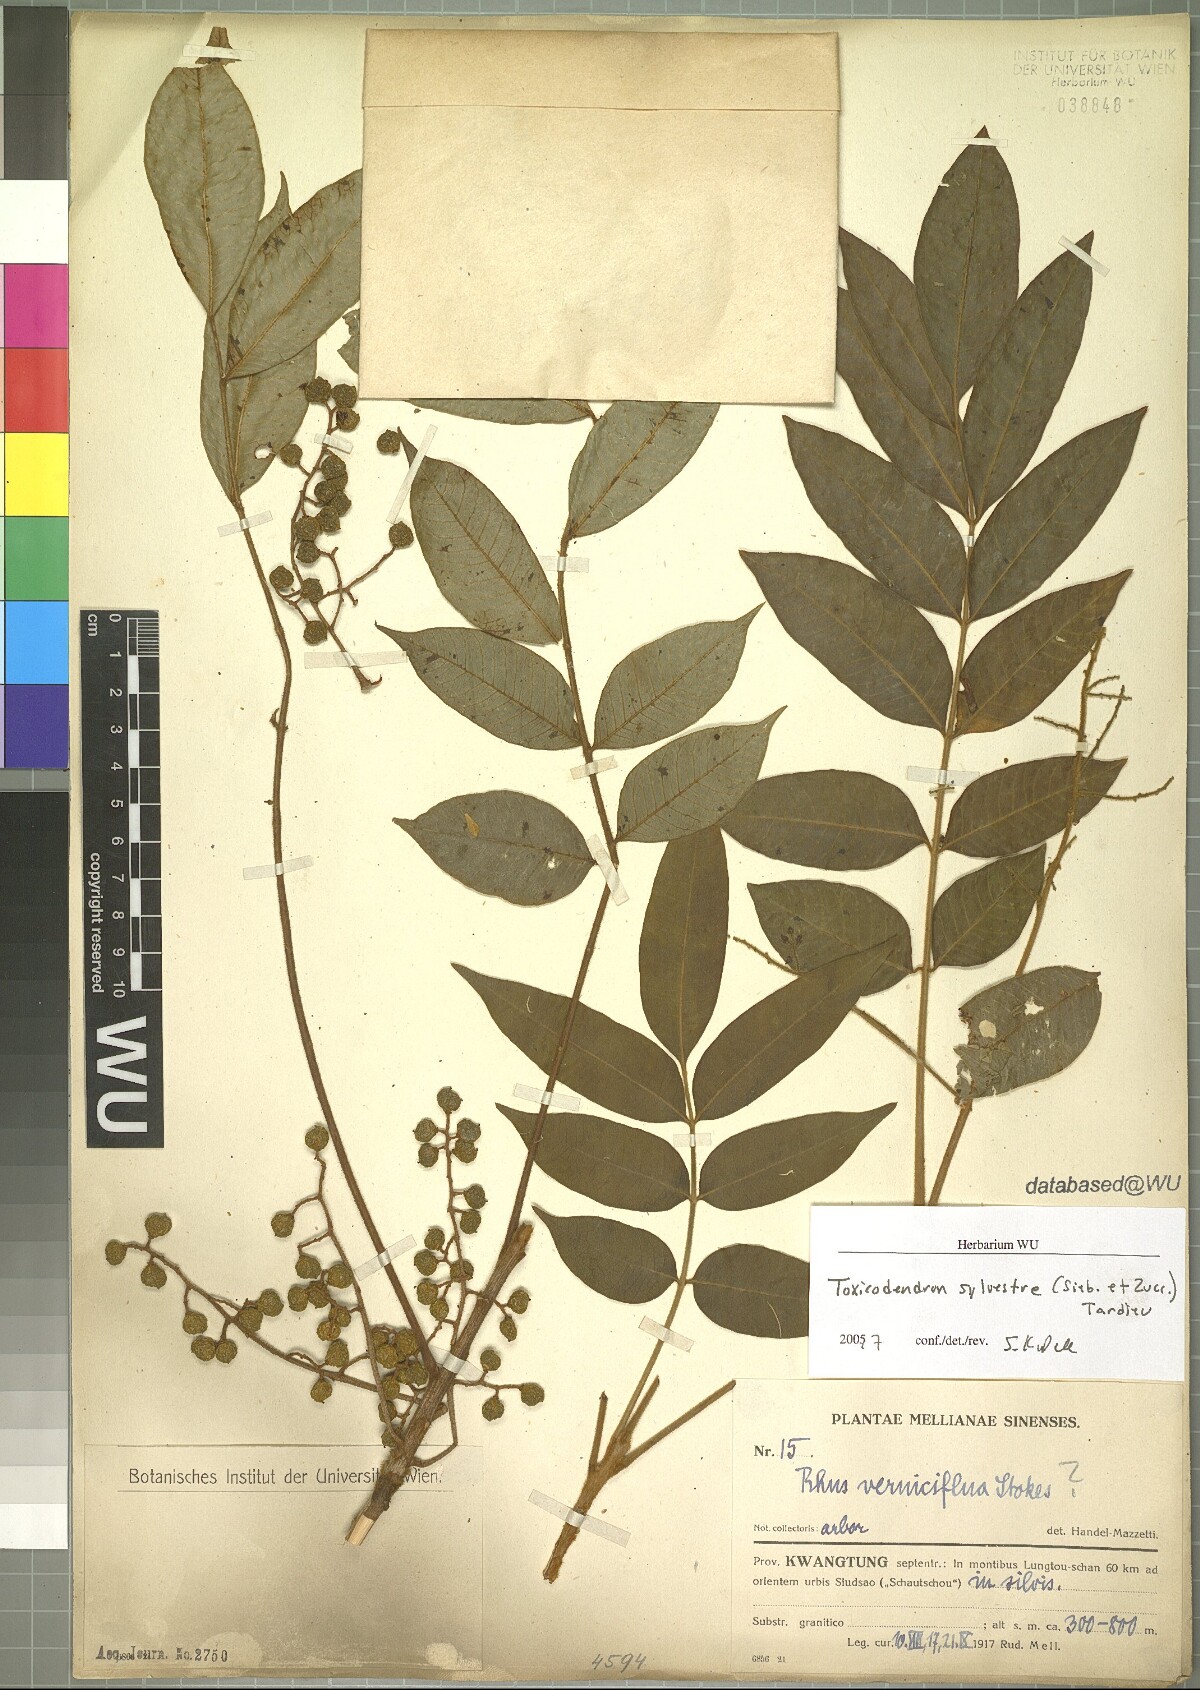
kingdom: Plantae
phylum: Tracheophyta
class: Magnoliopsida
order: Sapindales
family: Anacardiaceae
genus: Toxicodendron
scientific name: Toxicodendron sylvestre
